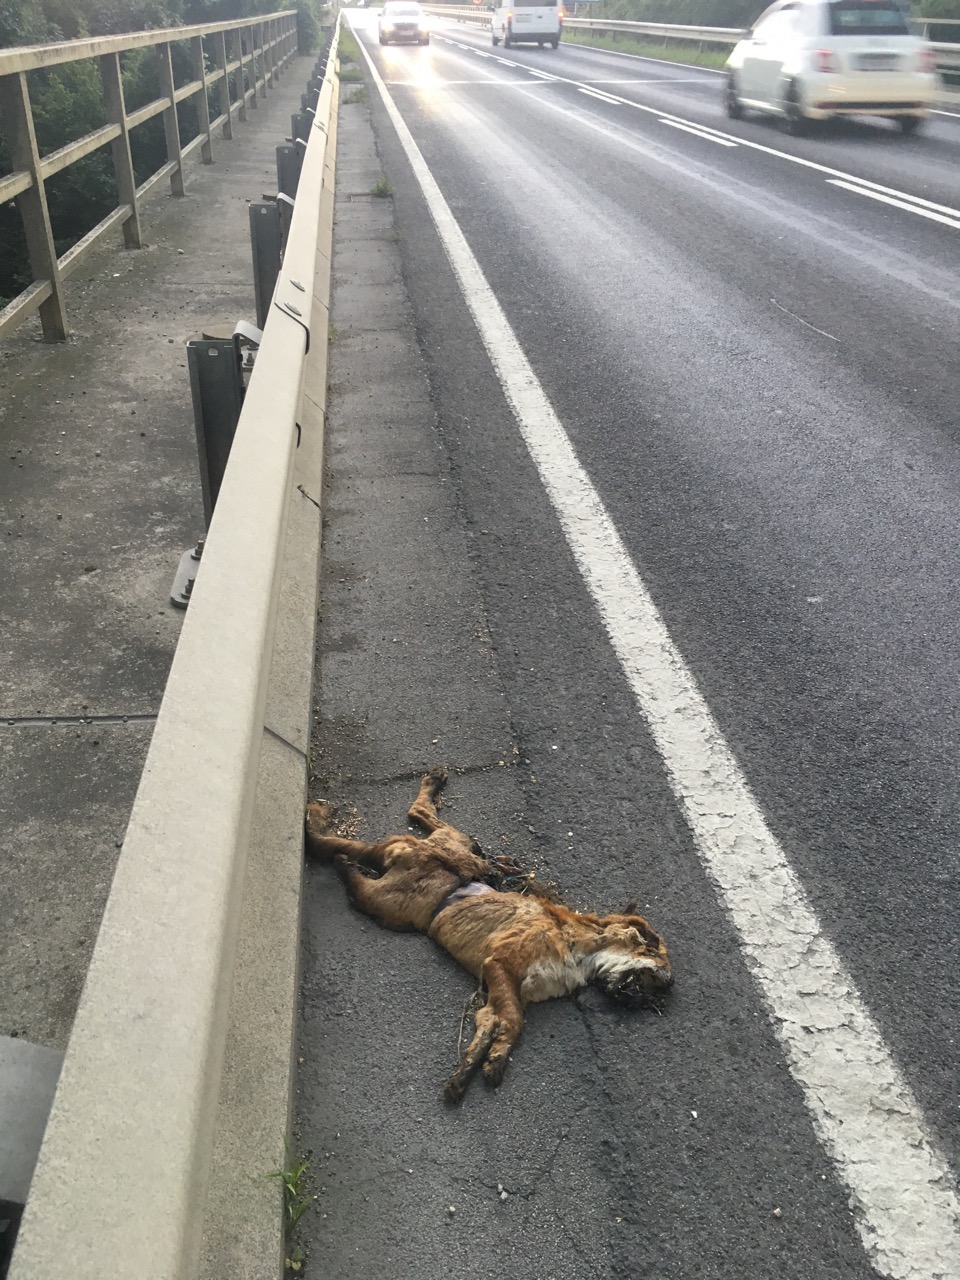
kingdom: Animalia
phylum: Chordata
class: Mammalia
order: Carnivora
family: Canidae
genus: Vulpes
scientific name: Vulpes vulpes
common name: Red fox
